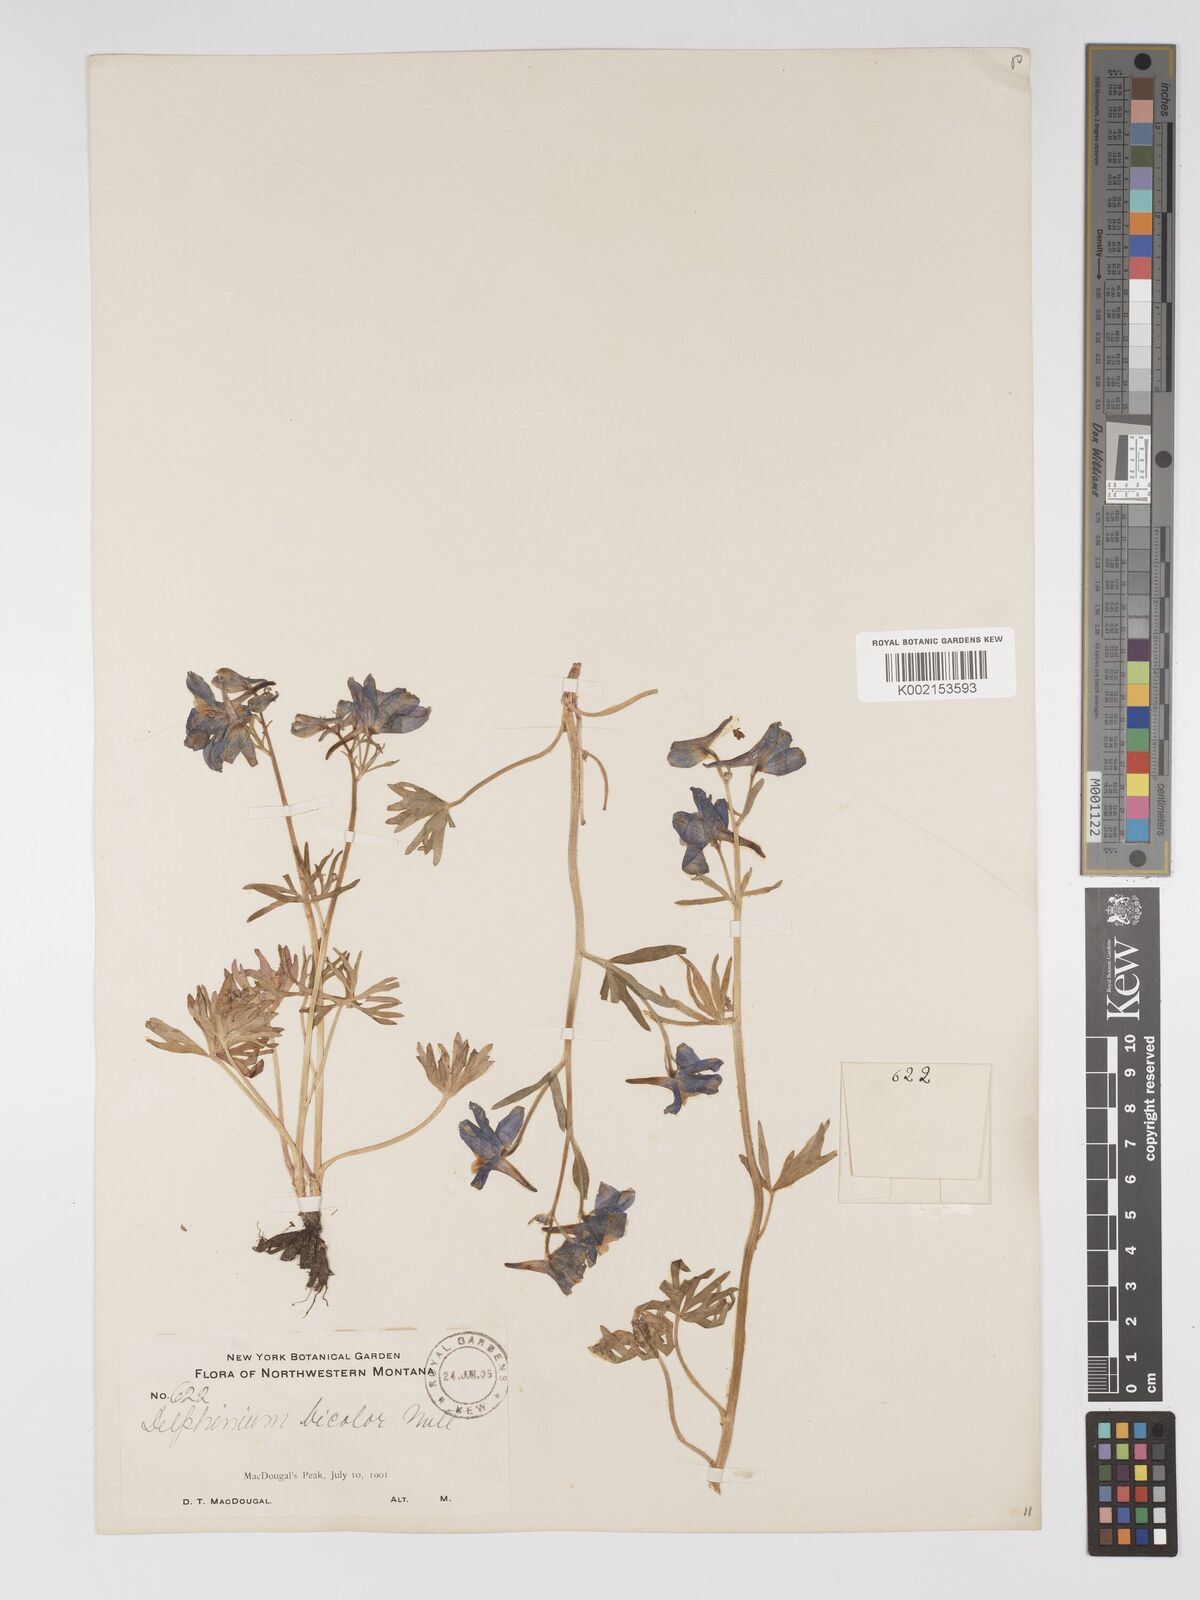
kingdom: Plantae
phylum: Tracheophyta
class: Magnoliopsida
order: Ranunculales
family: Ranunculaceae
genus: Delphinium
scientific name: Delphinium bicolor
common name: Low larkspur
